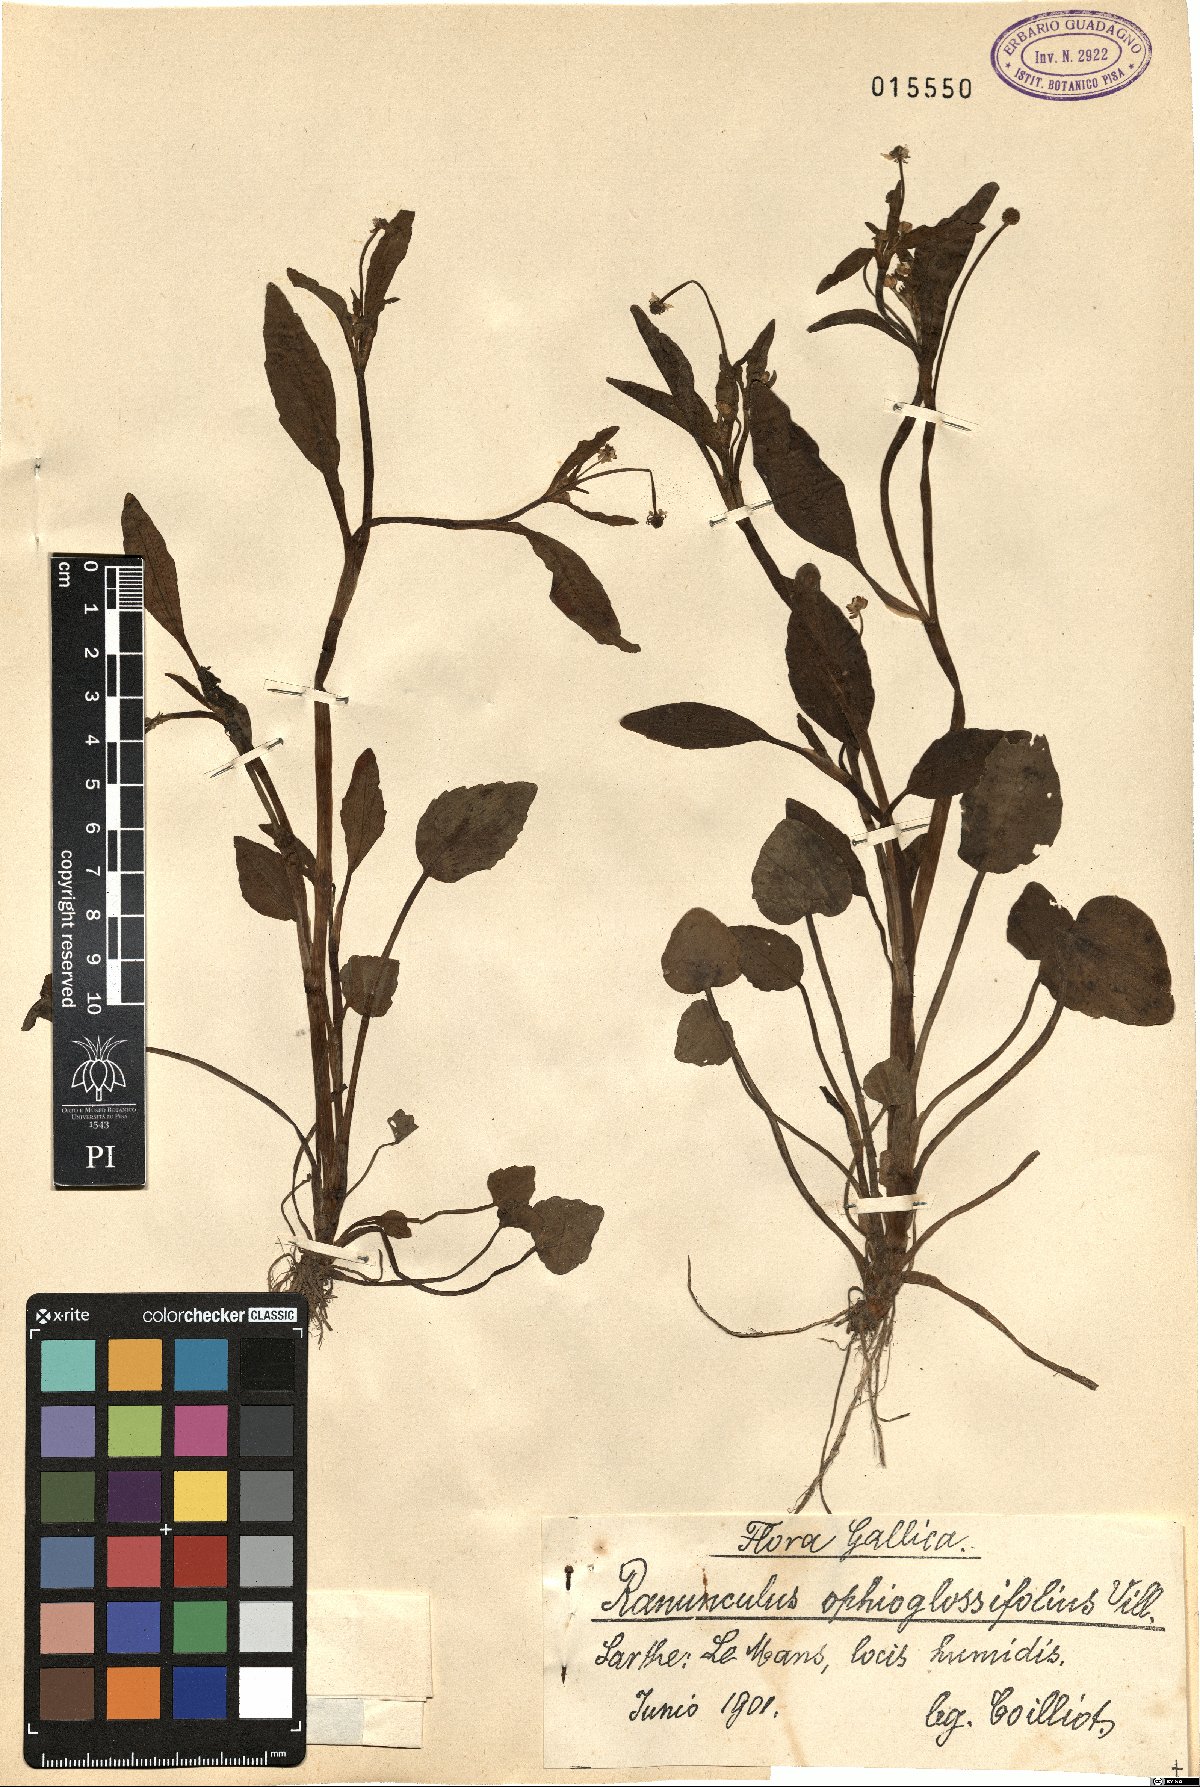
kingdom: Plantae
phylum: Tracheophyta
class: Magnoliopsida
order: Ranunculales
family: Ranunculaceae
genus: Ranunculus
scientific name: Ranunculus ophioglossifolius
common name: Adder's-tongue spearwort
